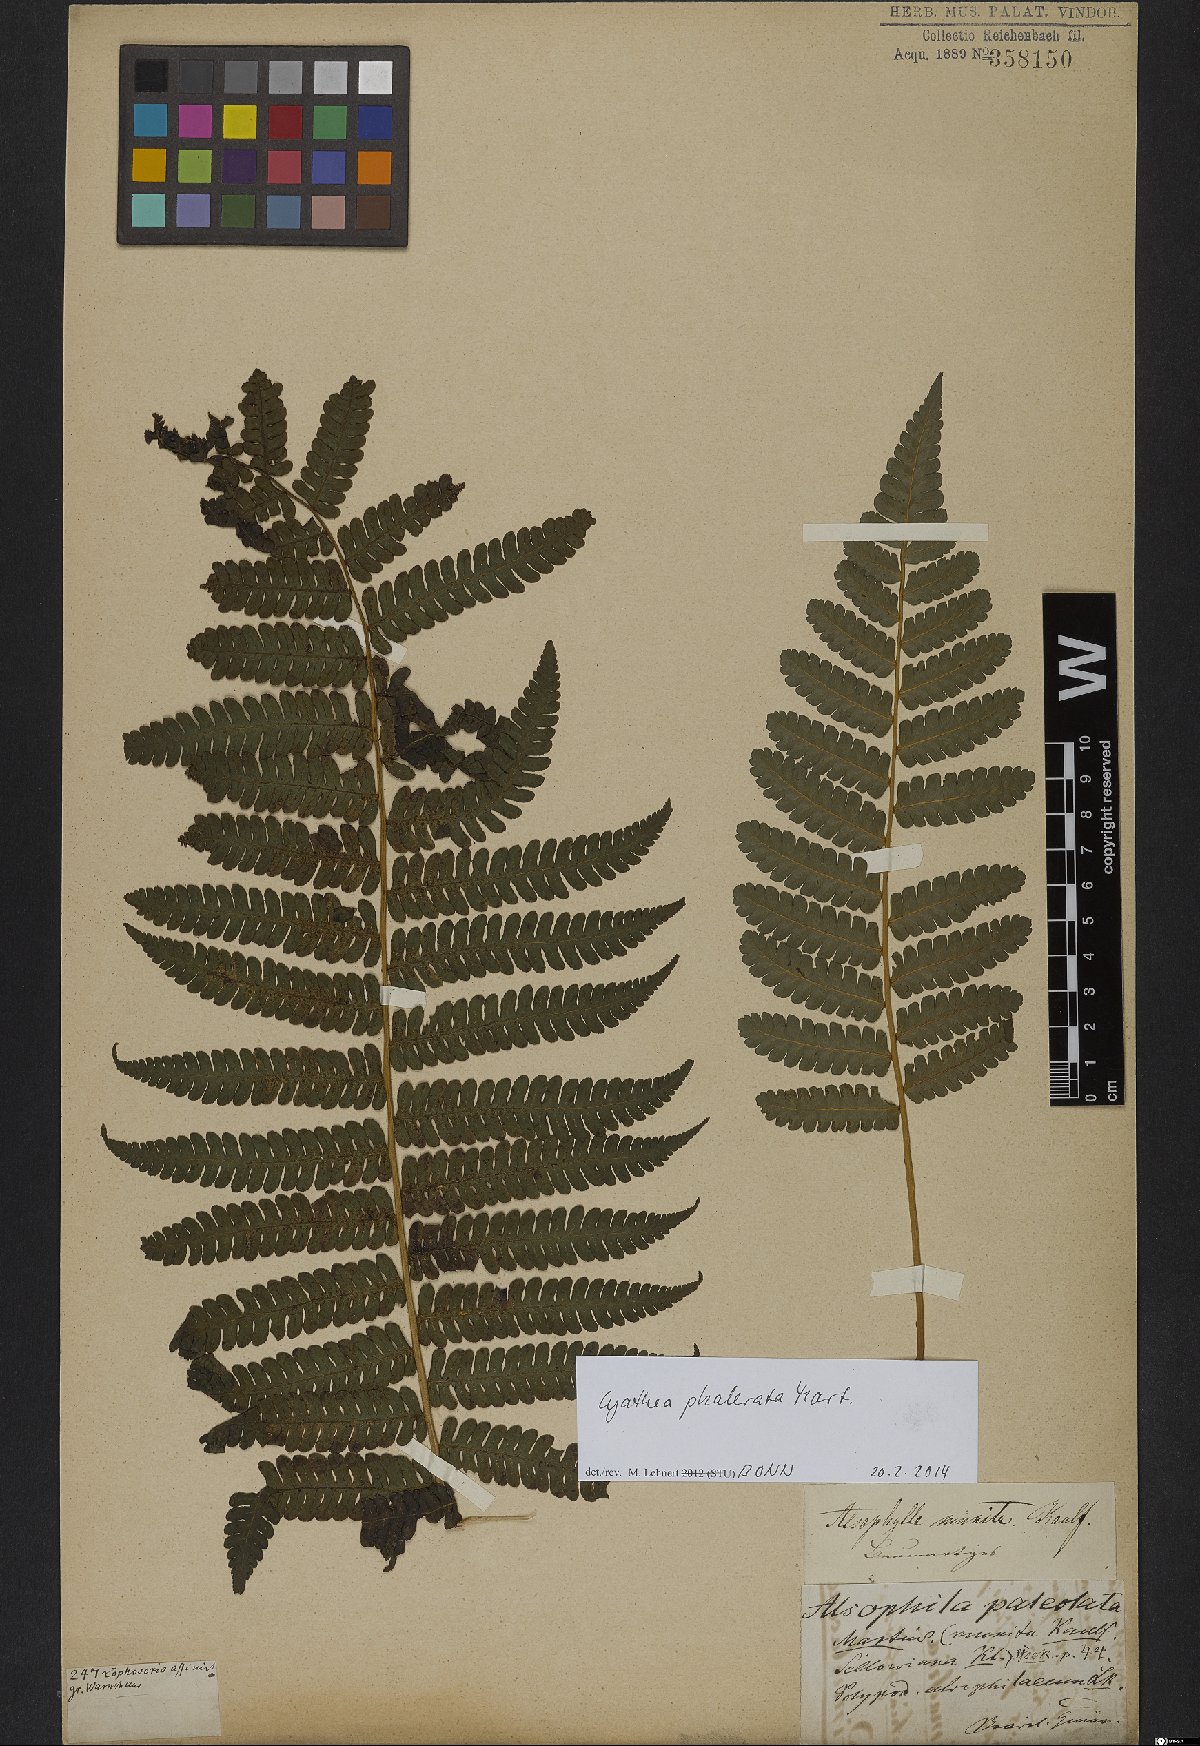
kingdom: Plantae
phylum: Tracheophyta
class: Polypodiopsida
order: Cyatheales
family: Cyatheaceae
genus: Cyathea
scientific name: Cyathea phalerata
